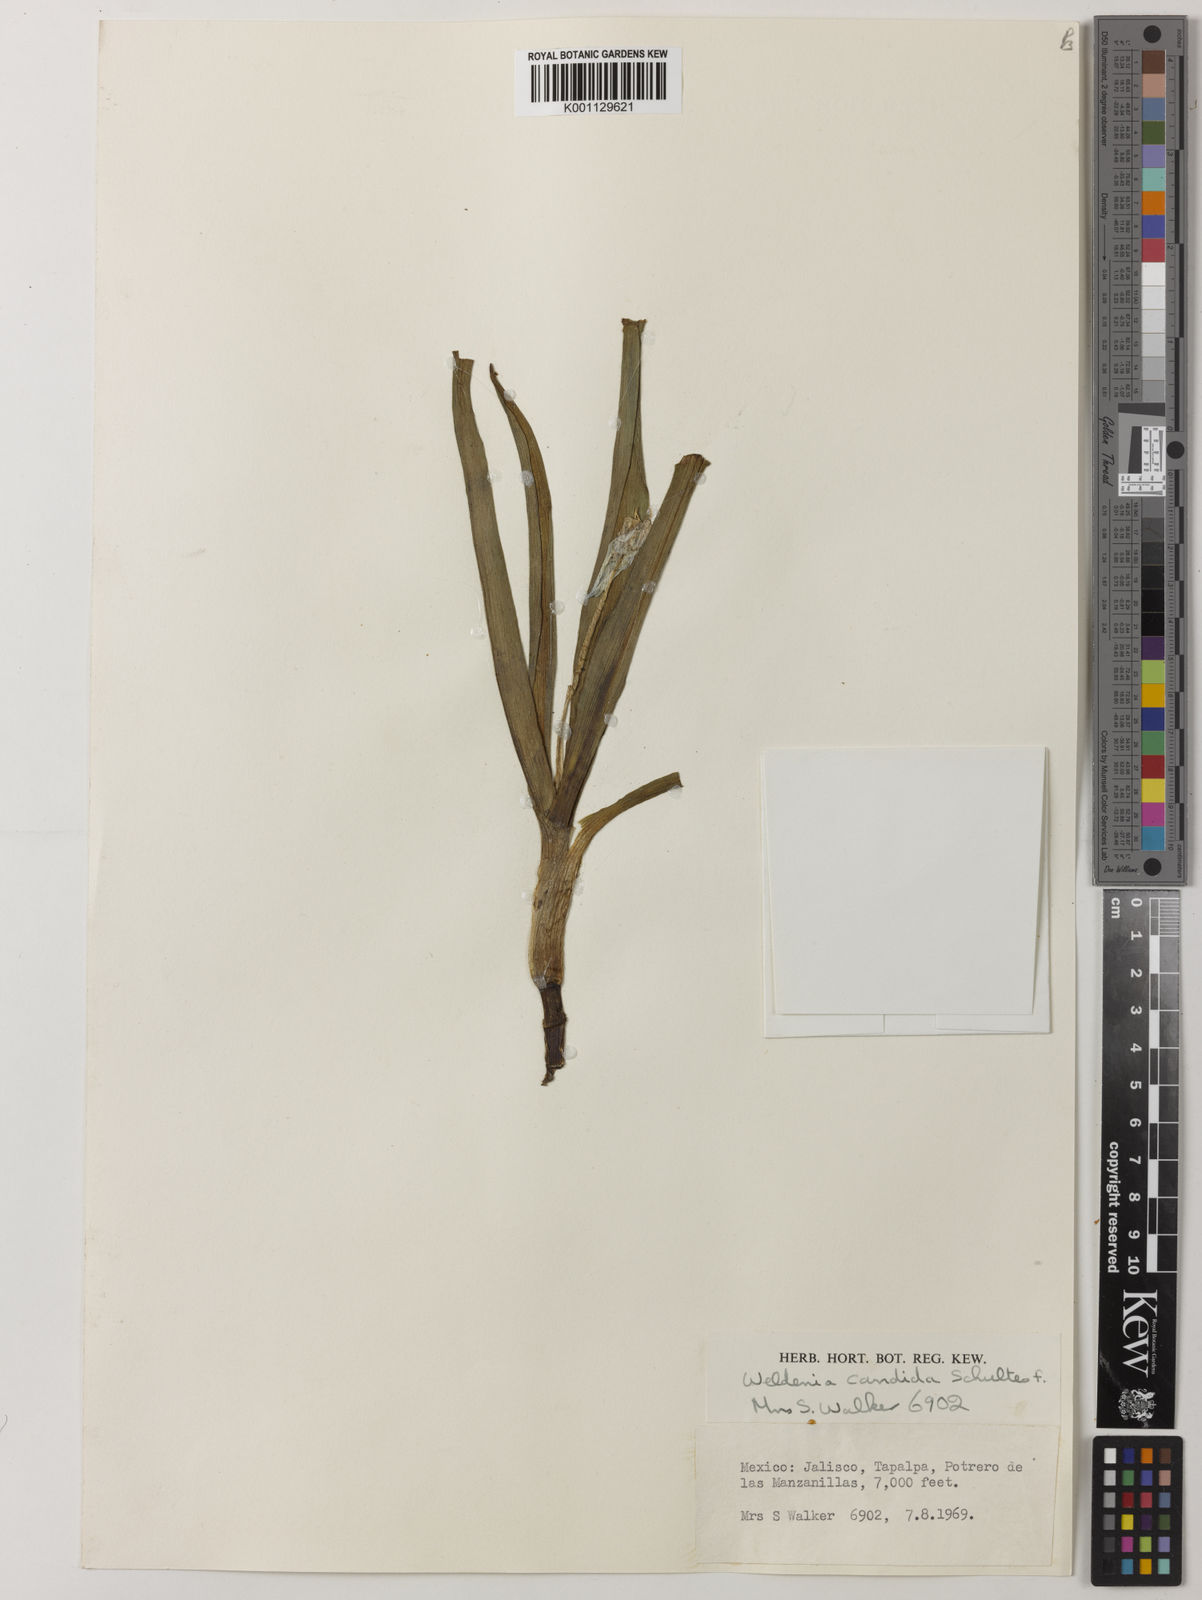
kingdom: Plantae
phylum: Tracheophyta
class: Liliopsida
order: Commelinales
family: Commelinaceae
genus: Weldenia
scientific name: Weldenia
